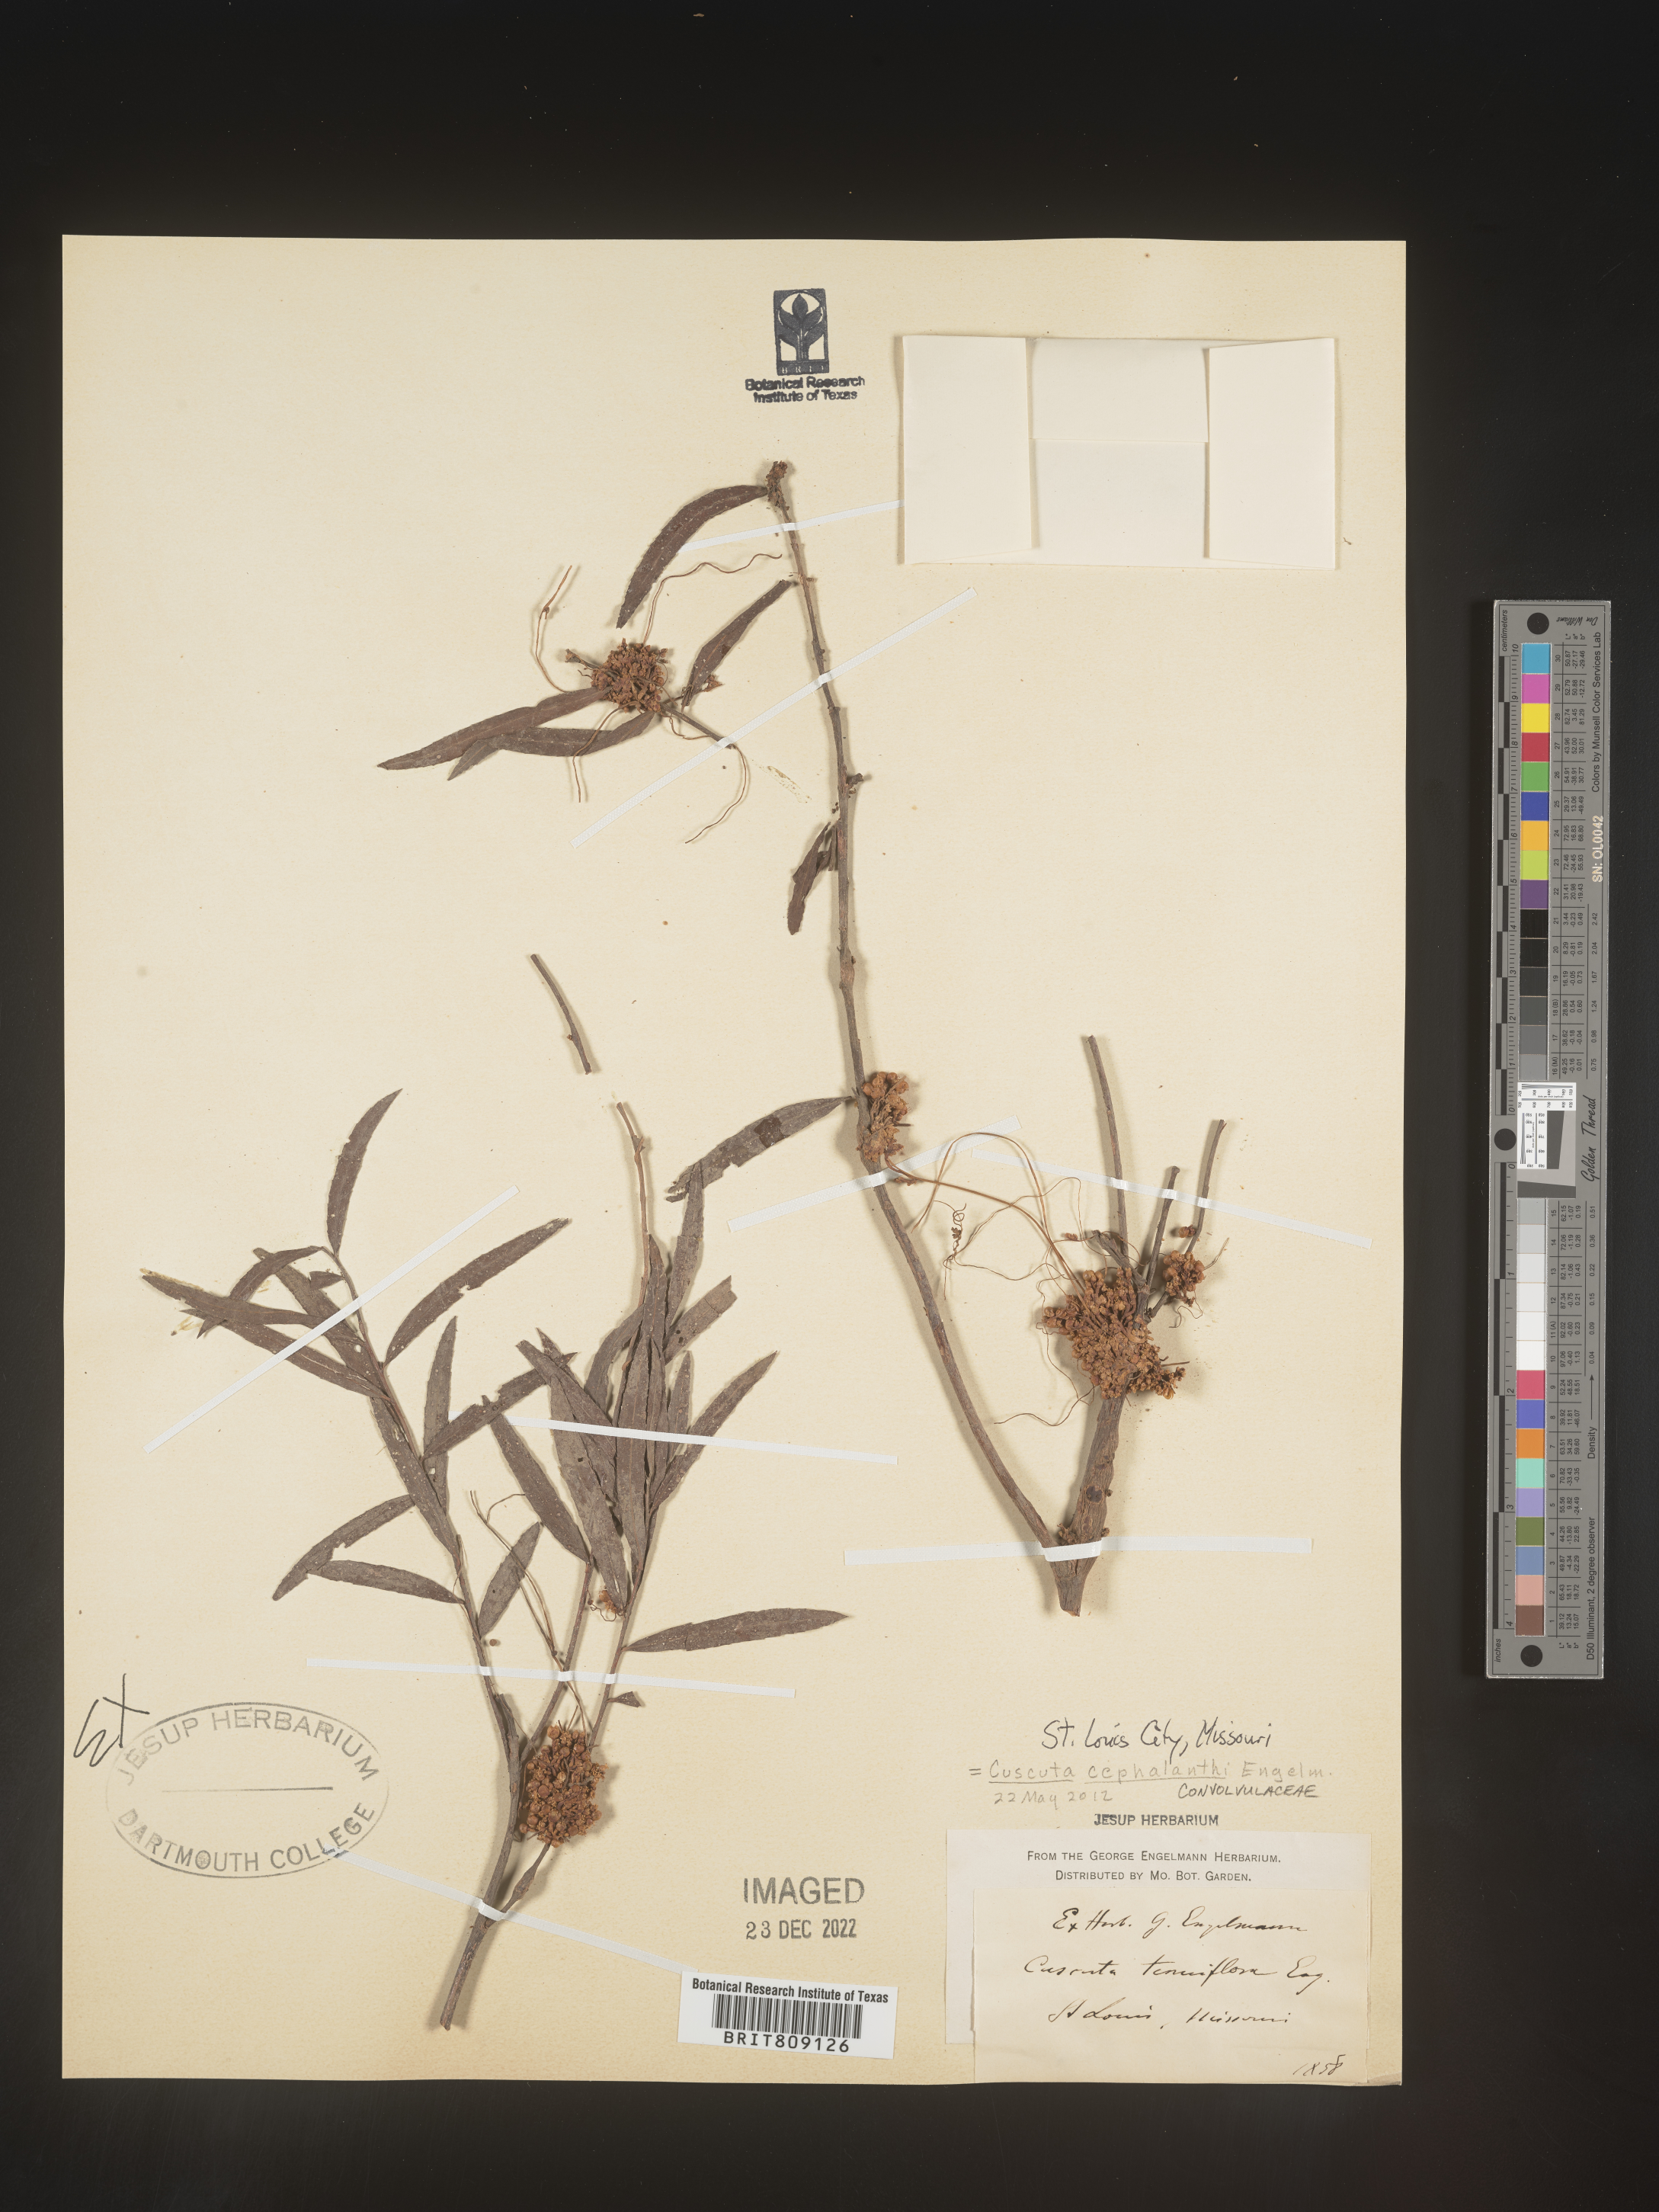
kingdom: Plantae
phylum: Tracheophyta
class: Magnoliopsida
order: Solanales
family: Convolvulaceae
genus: Cuscuta
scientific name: Cuscuta cephalanthi
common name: Button dodder
